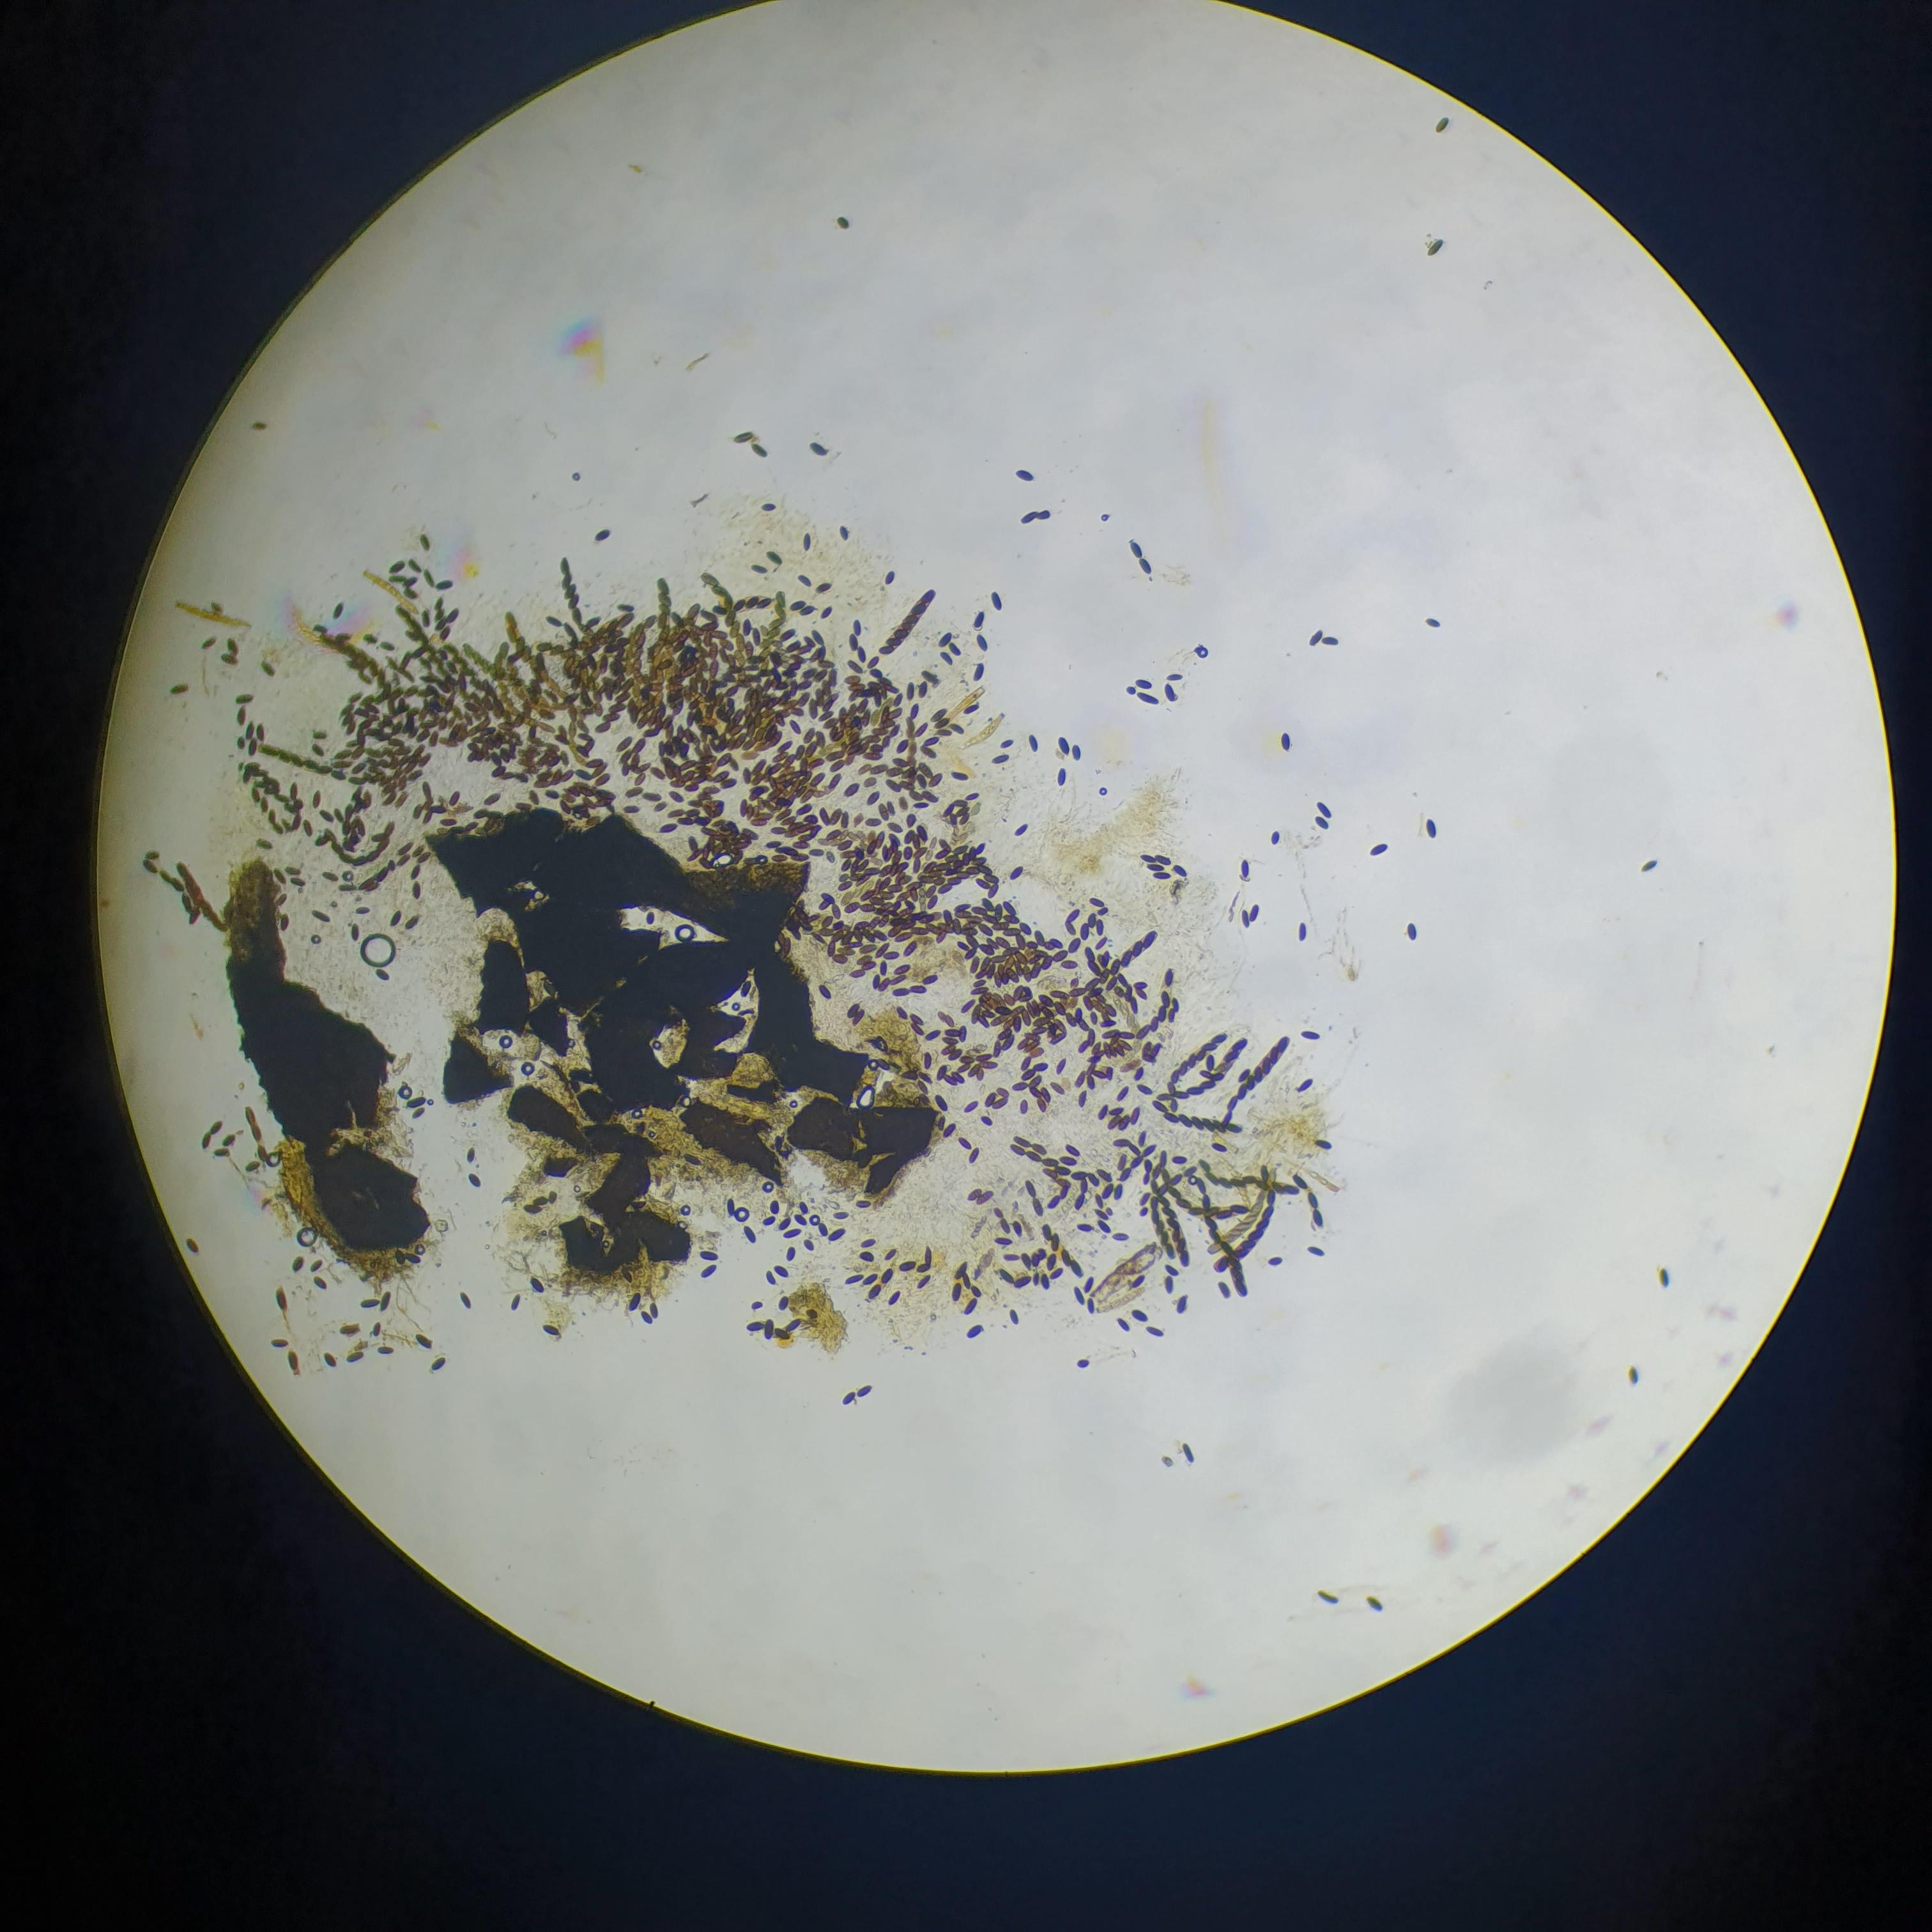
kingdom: Fungi
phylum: Ascomycota
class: Sordariomycetes
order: Amphisphaeriales
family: Amphisphaeriaceae
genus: Chitonospora
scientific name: Chitonospora ammophila
